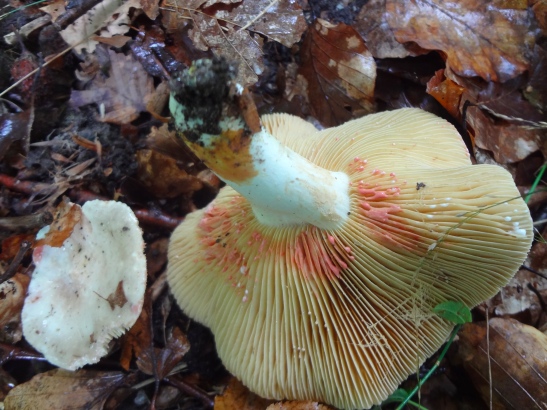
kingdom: Fungi
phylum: Basidiomycota
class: Agaricomycetes
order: Russulales
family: Russulaceae
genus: Lactarius
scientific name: Lactarius acris
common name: rosamælket mælkehat
